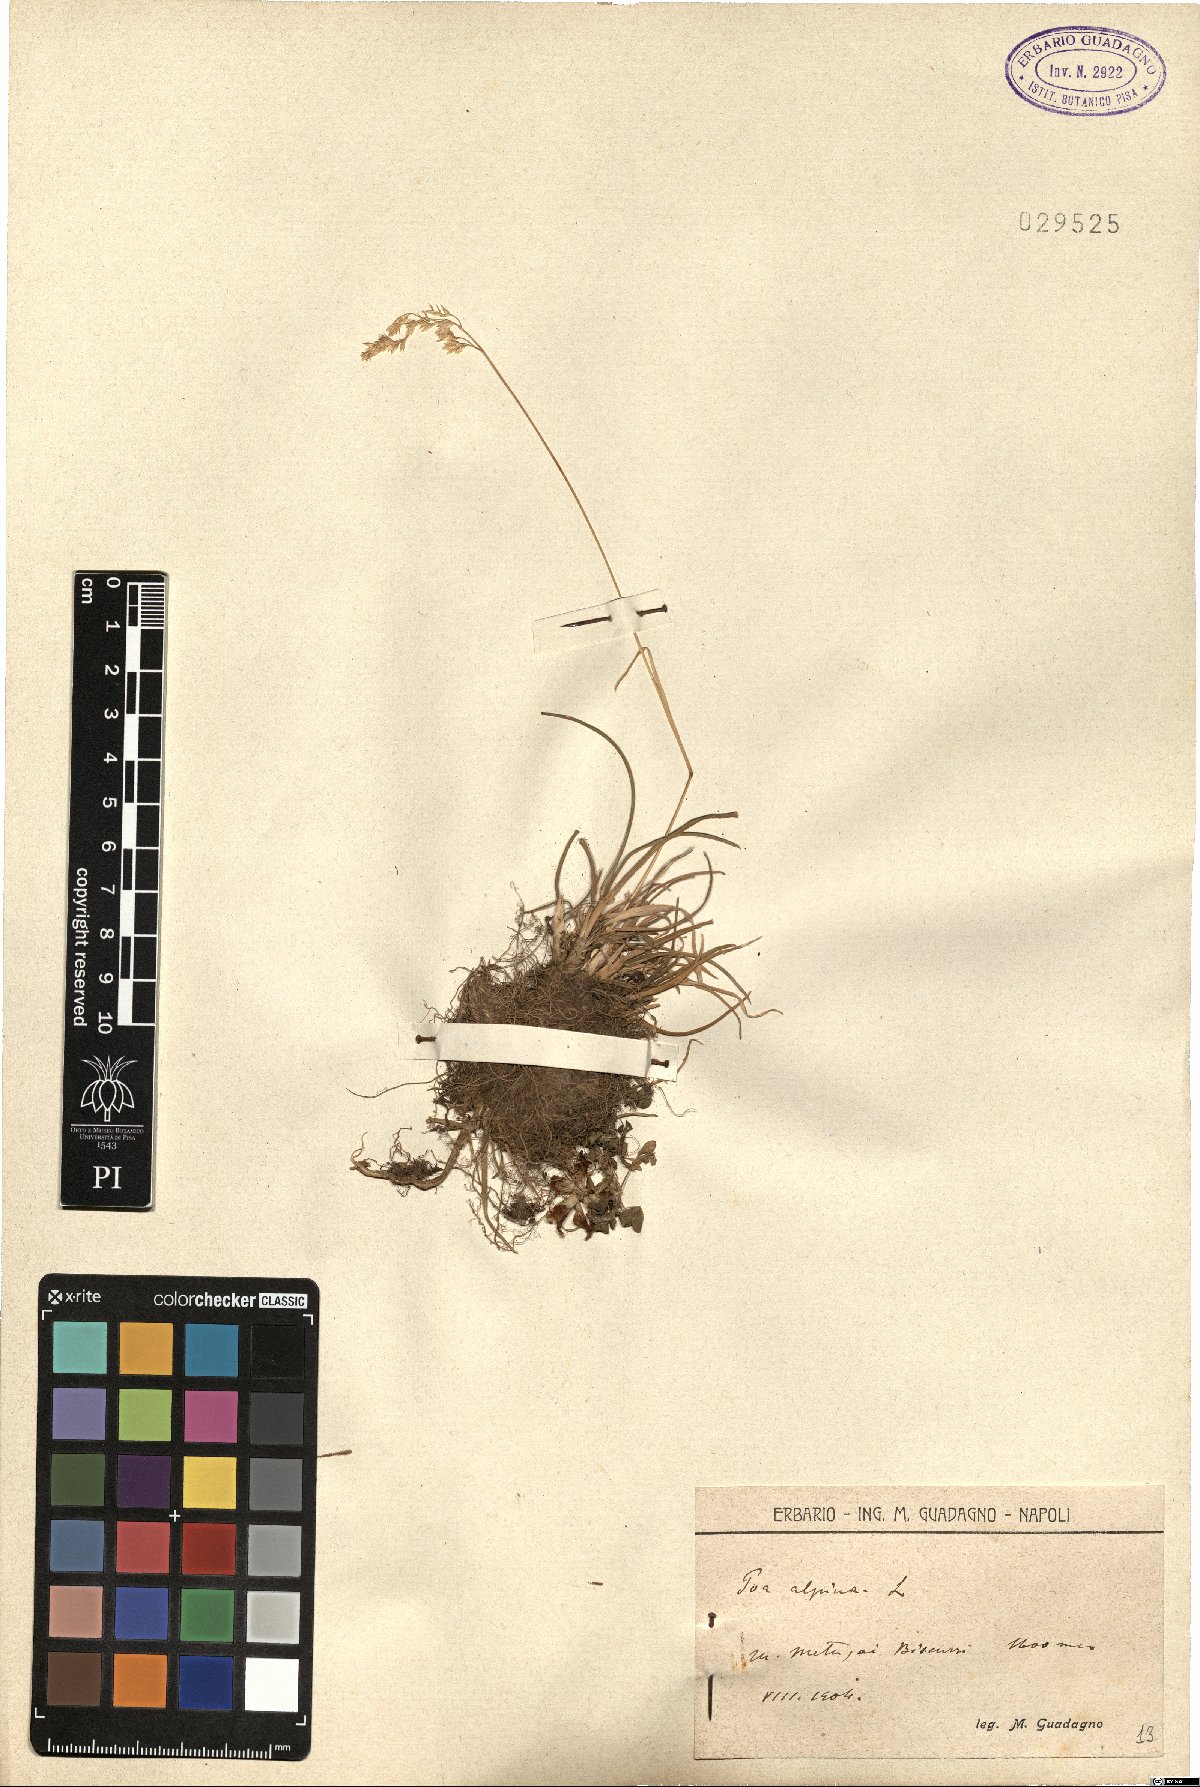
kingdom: Plantae
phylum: Tracheophyta
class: Liliopsida
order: Poales
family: Poaceae
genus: Poa
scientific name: Poa alpina
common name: Alpine bluegrass
